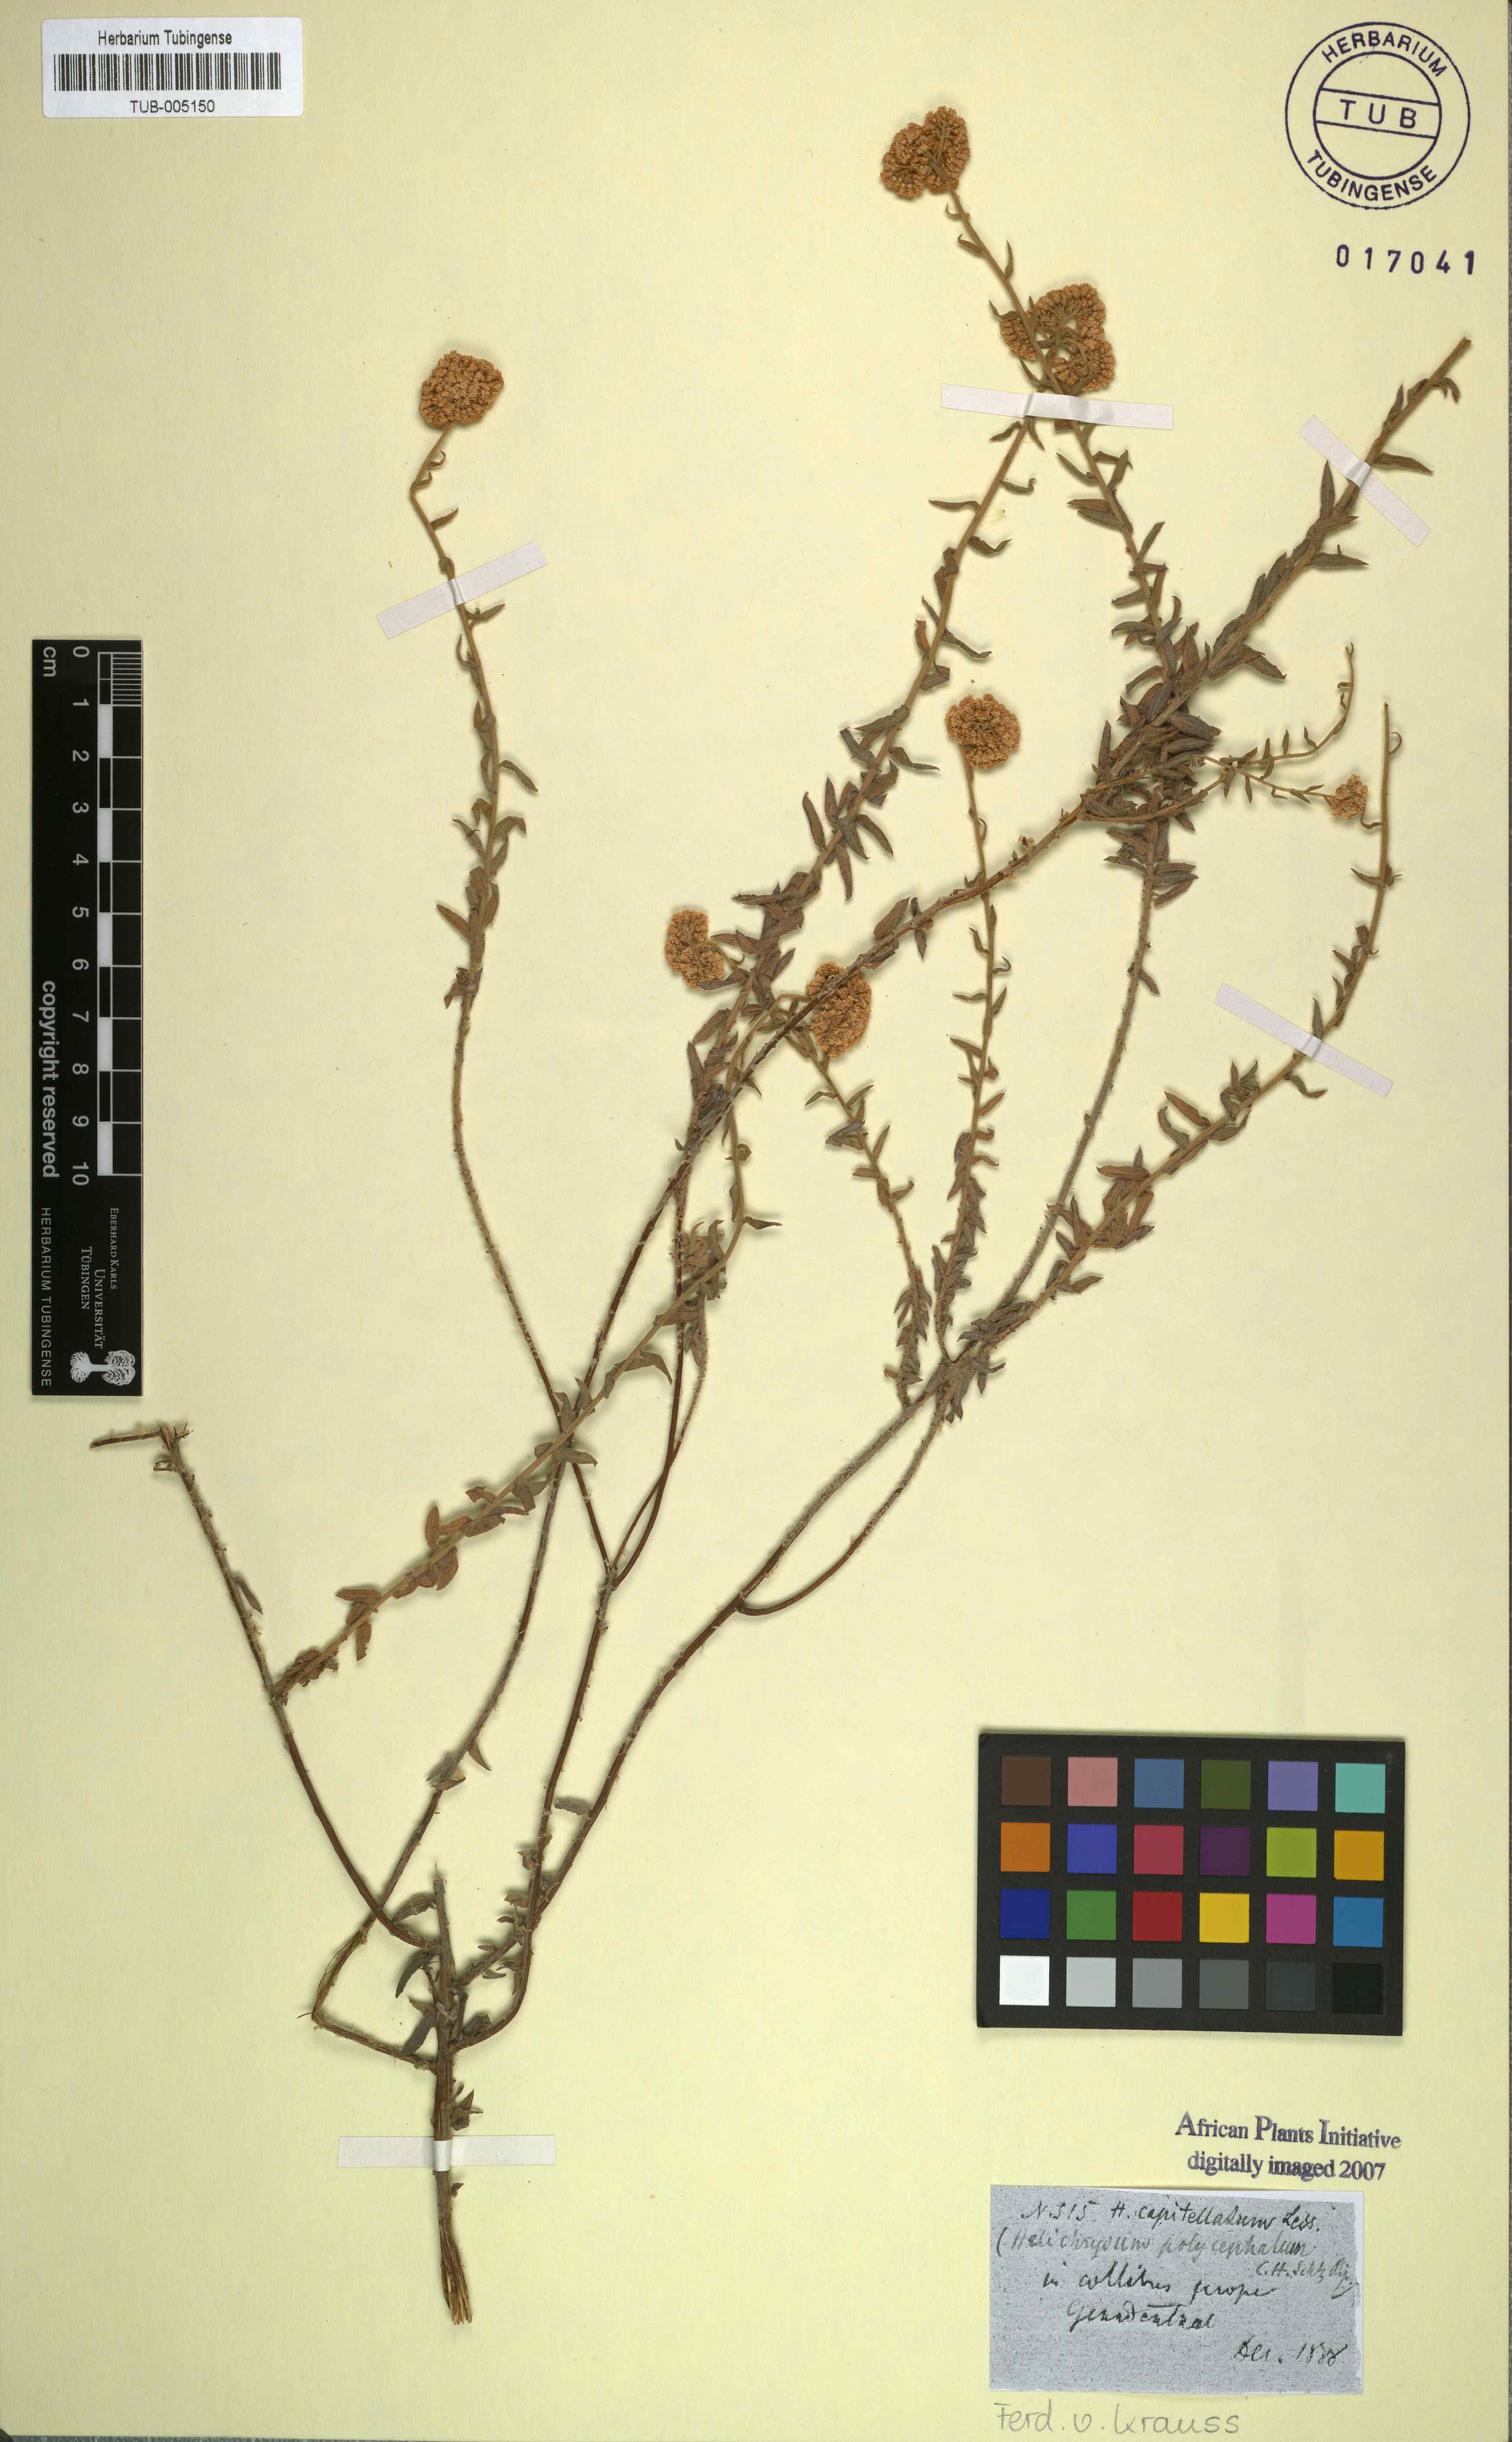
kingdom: Plantae
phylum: Tracheophyta
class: Magnoliopsida
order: Asterales
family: Asteraceae
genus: Helichrysum
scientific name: Helichrysum helianthemifolium
